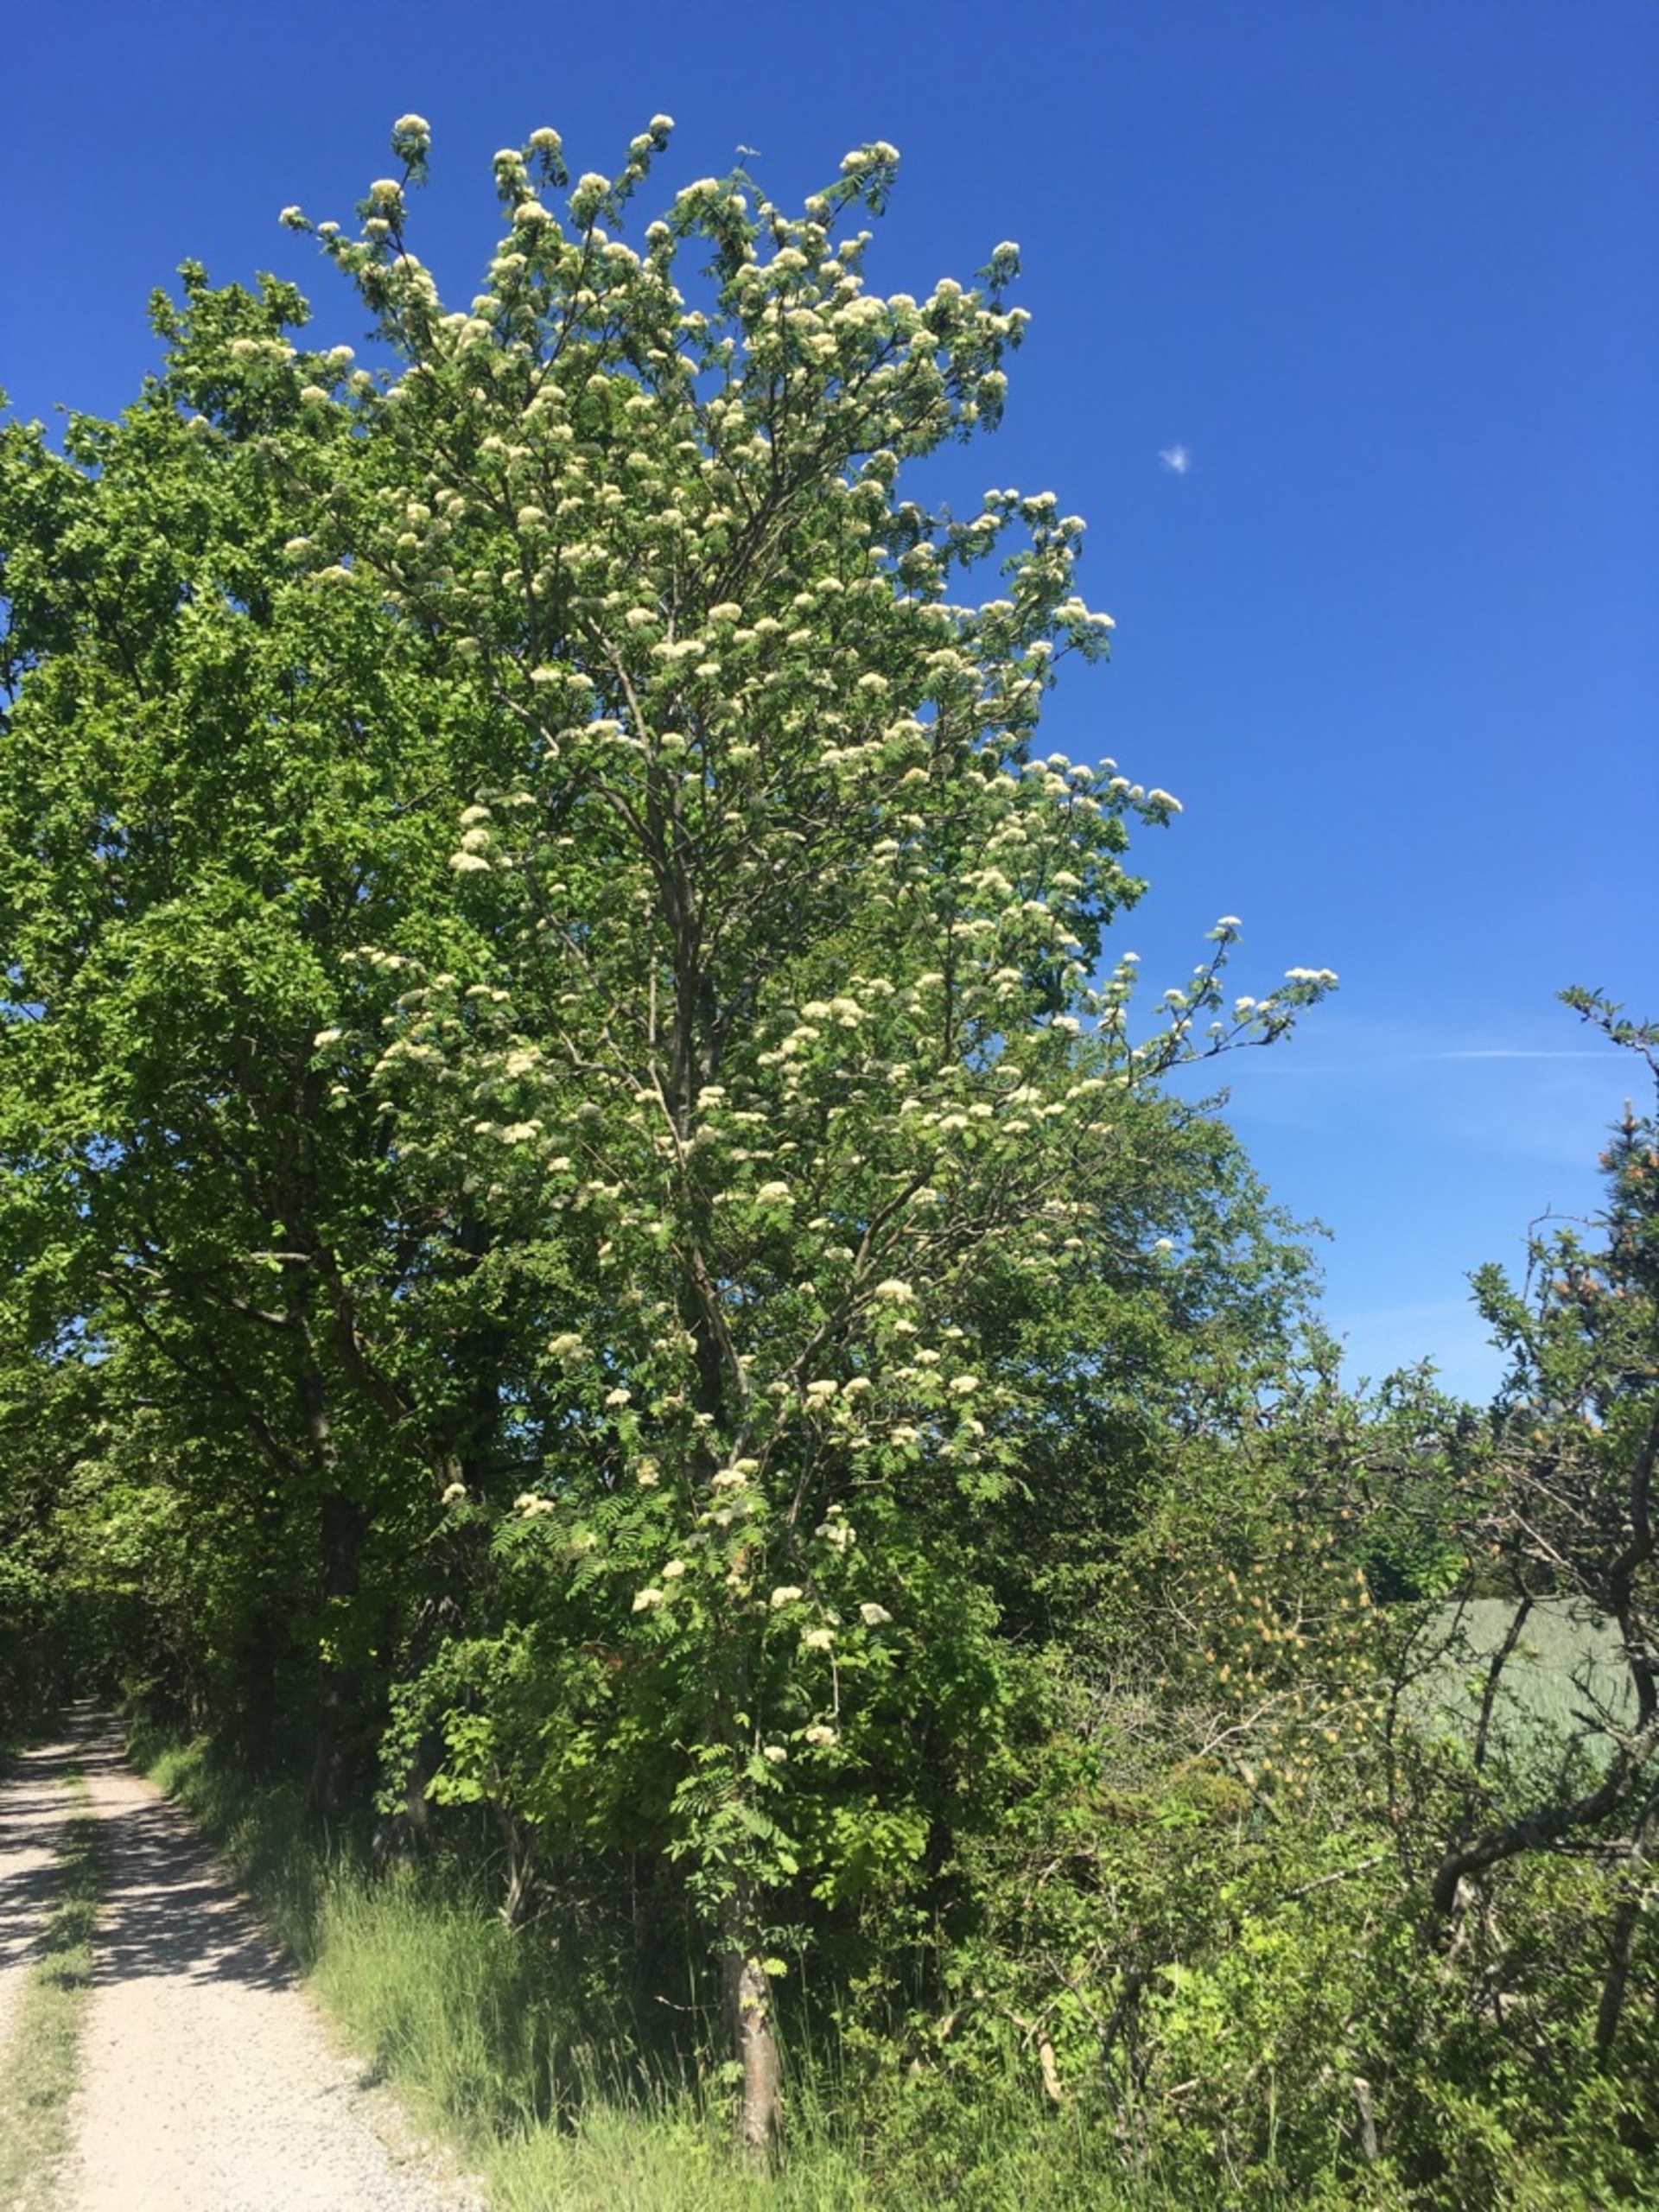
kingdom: Plantae
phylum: Tracheophyta
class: Magnoliopsida
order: Rosales
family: Rosaceae
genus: Sorbus
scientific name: Sorbus aucuparia
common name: Almindelig røn
